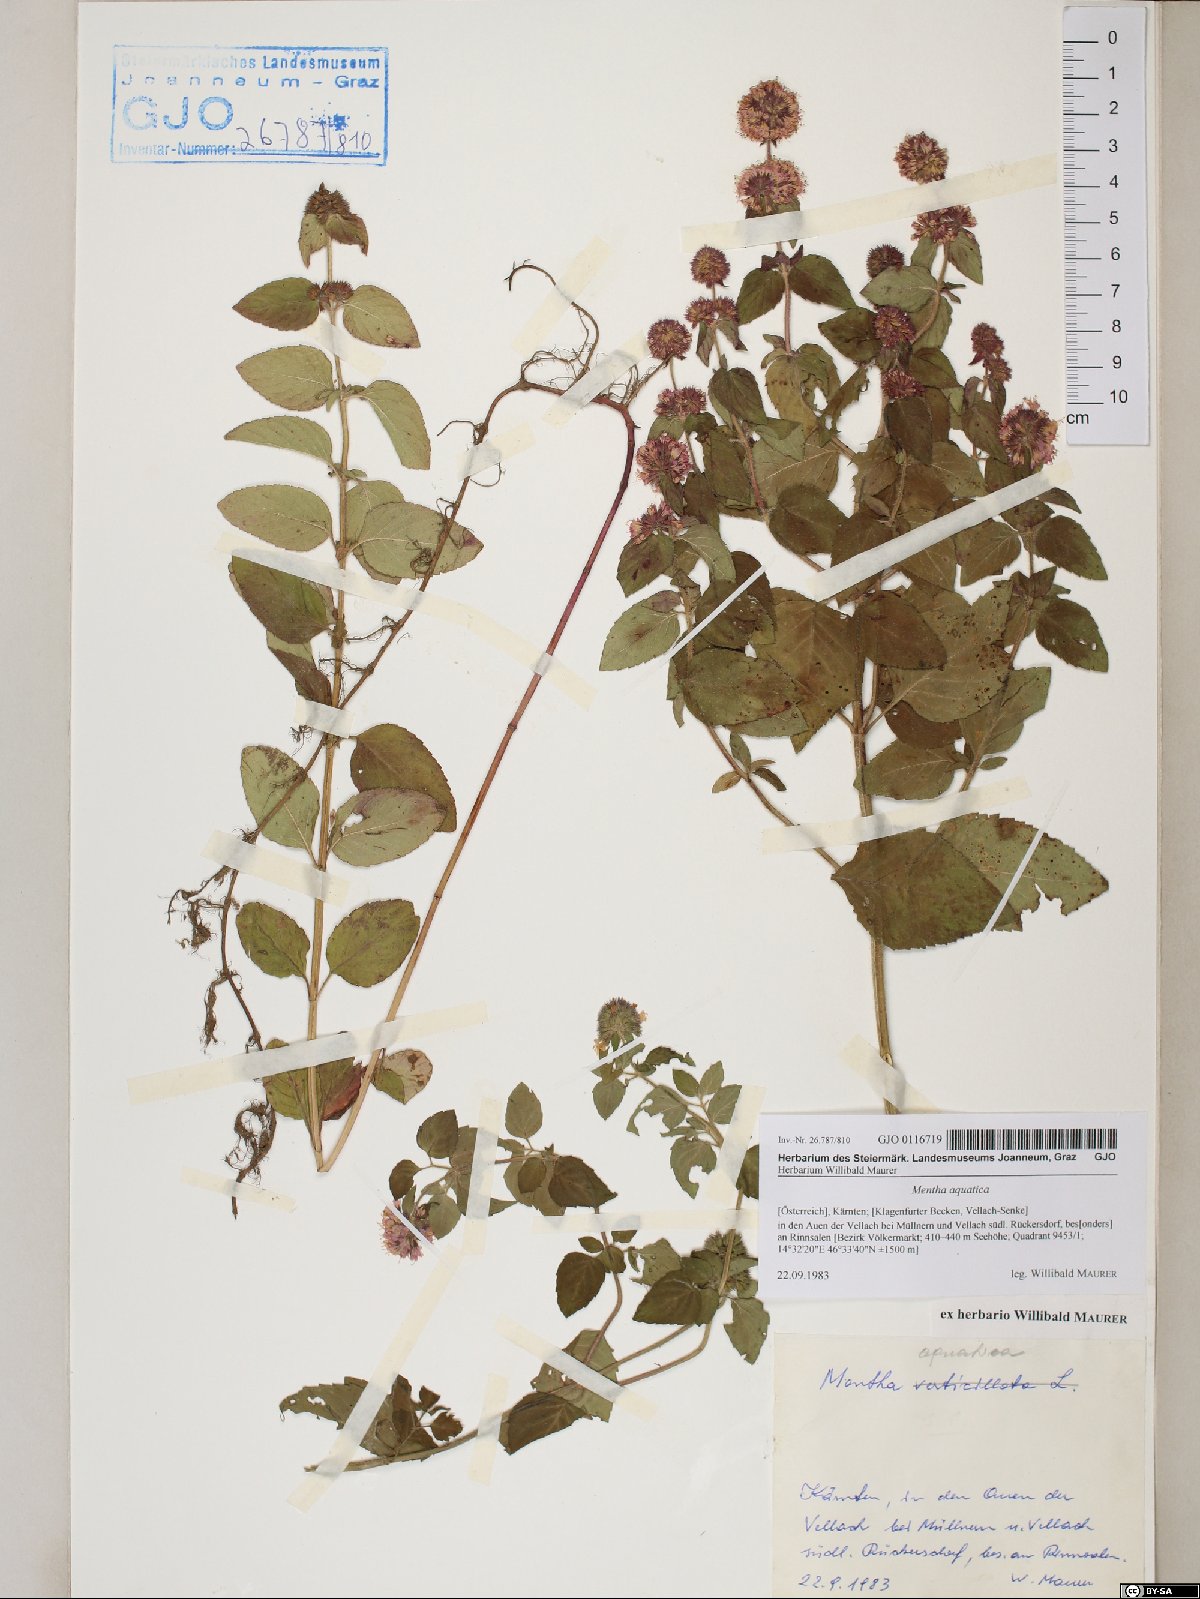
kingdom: Plantae
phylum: Tracheophyta
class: Magnoliopsida
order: Lamiales
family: Lamiaceae
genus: Mentha
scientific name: Mentha aquatica
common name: Water mint
